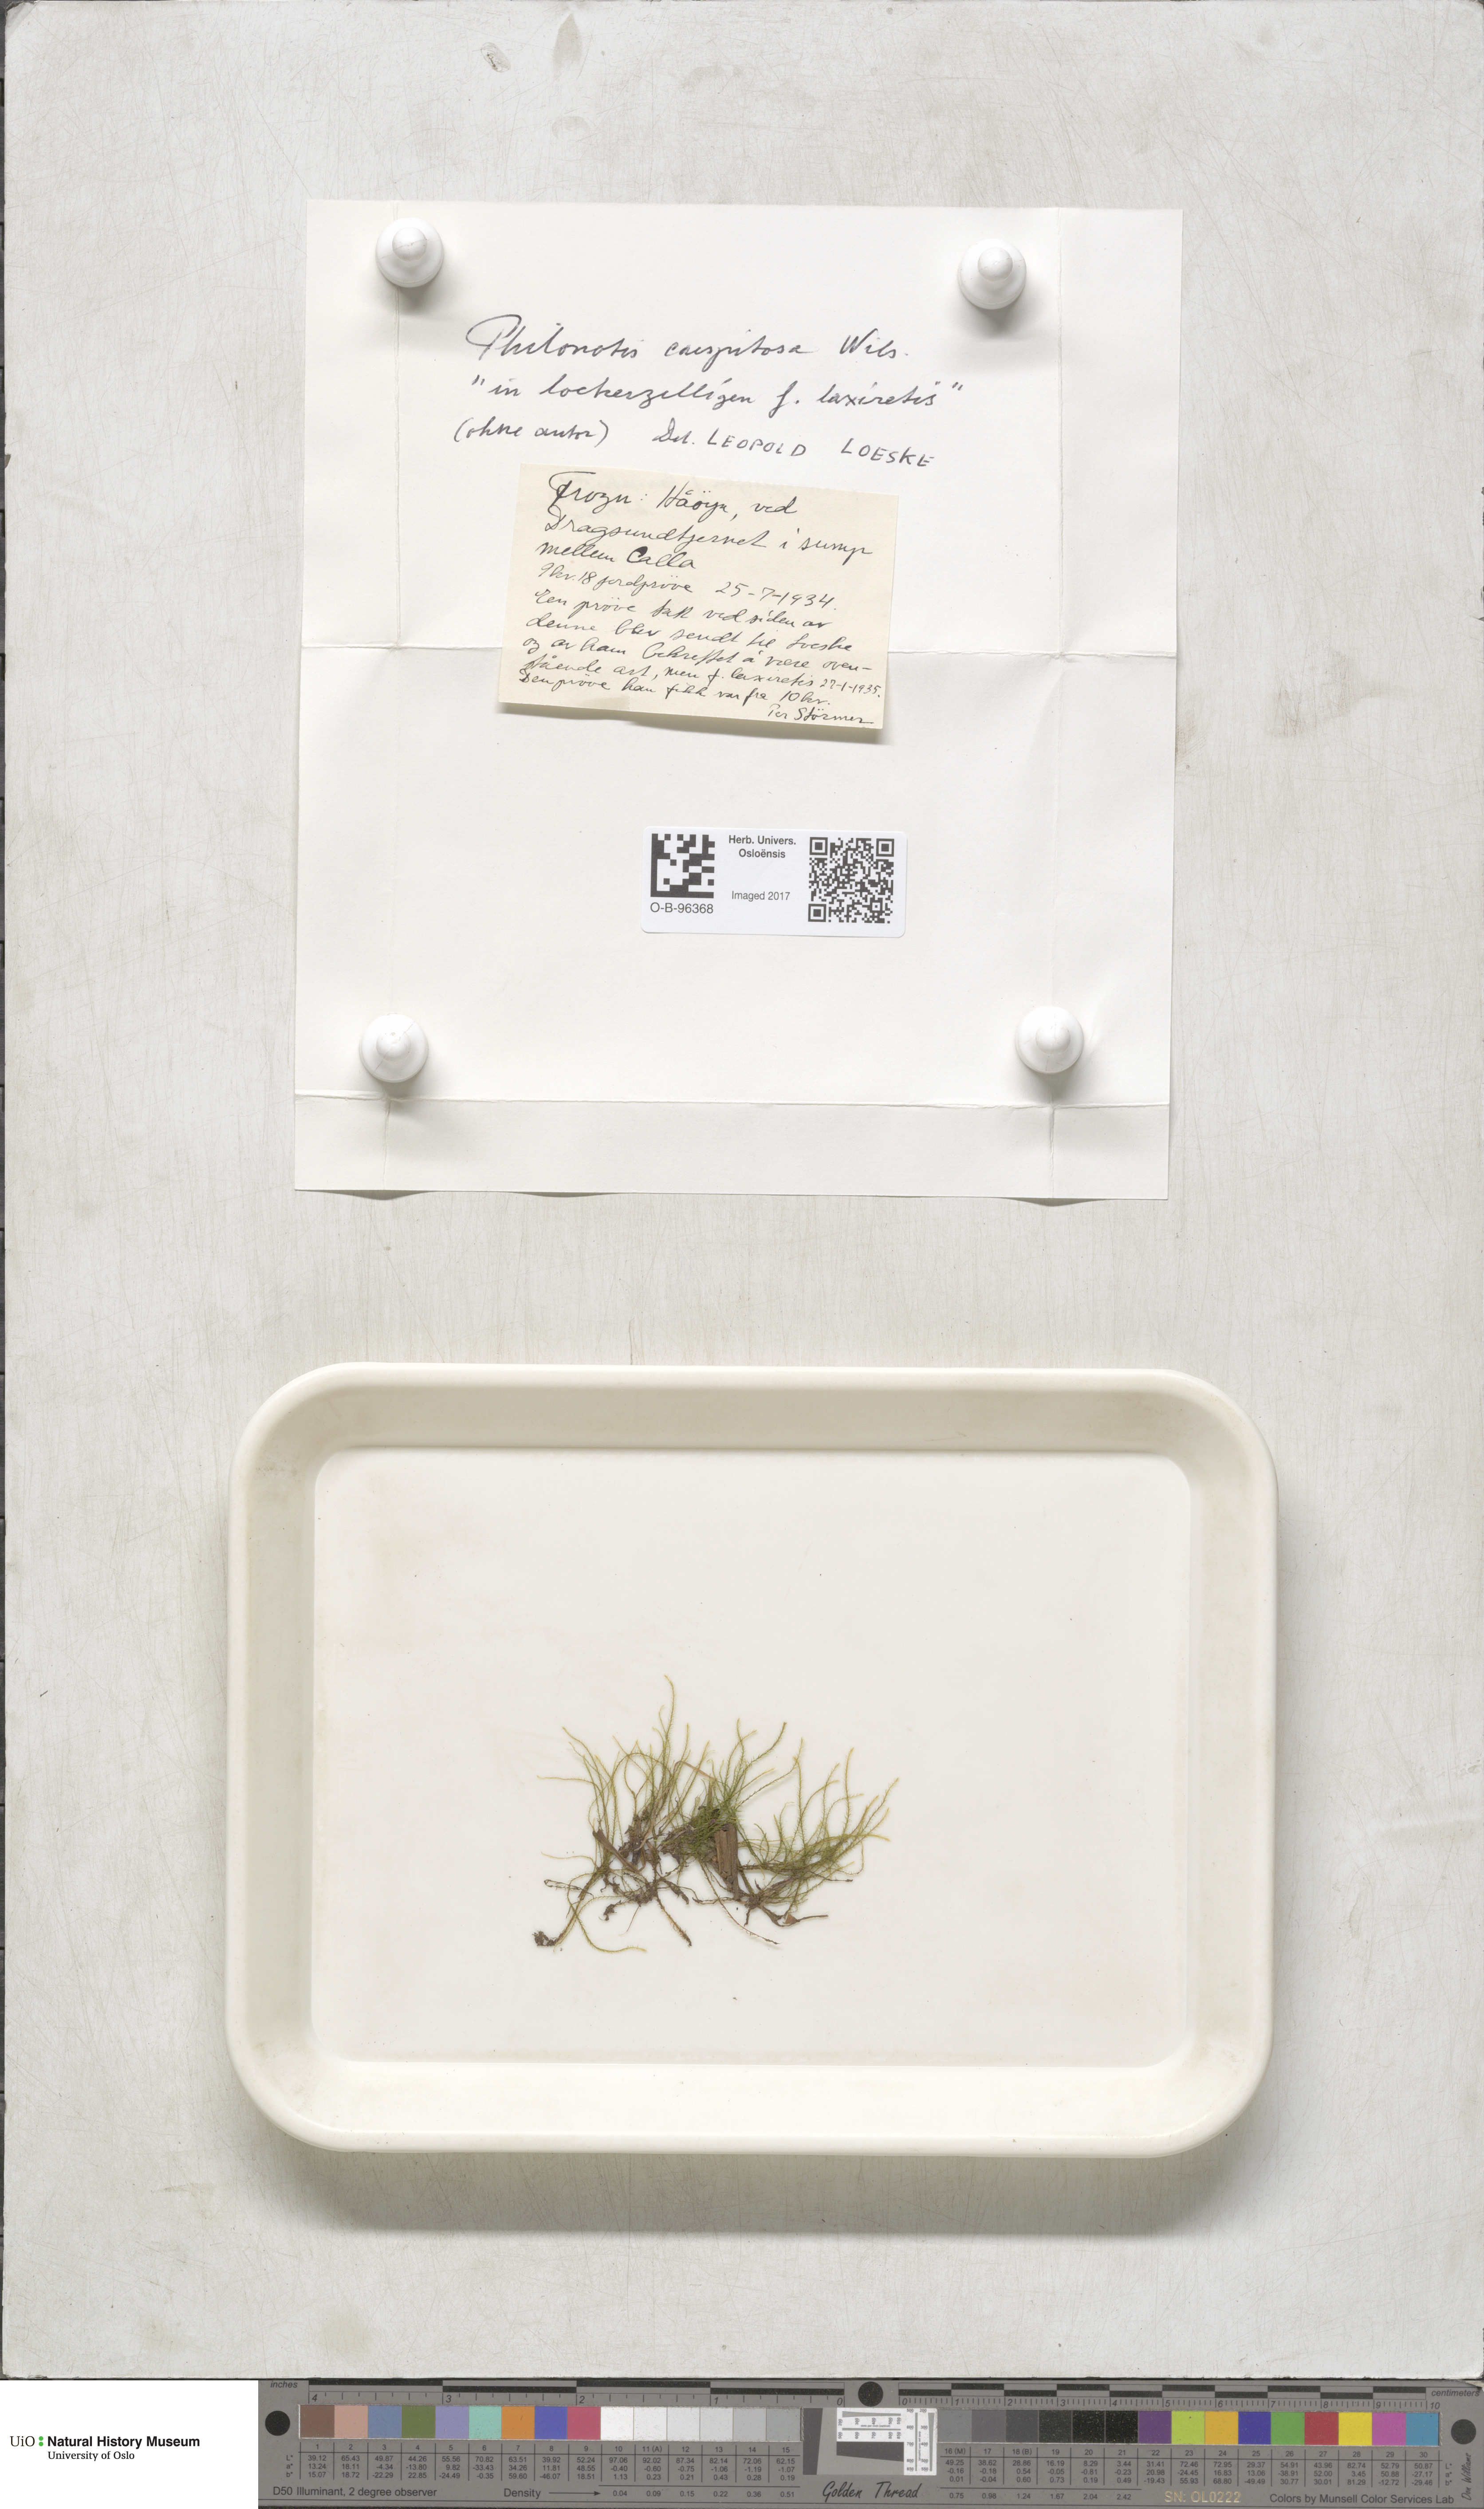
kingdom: Plantae
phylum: Bryophyta
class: Bryopsida
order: Bartramiales
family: Bartramiaceae
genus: Philonotis
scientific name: Philonotis caespitosa
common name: Tufted apple-moss
